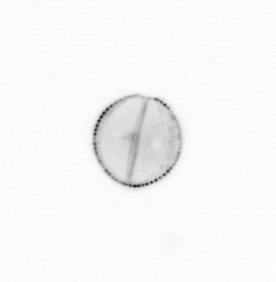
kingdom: Chromista
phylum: Ochrophyta
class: Bacillariophyceae
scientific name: Bacillariophyceae
